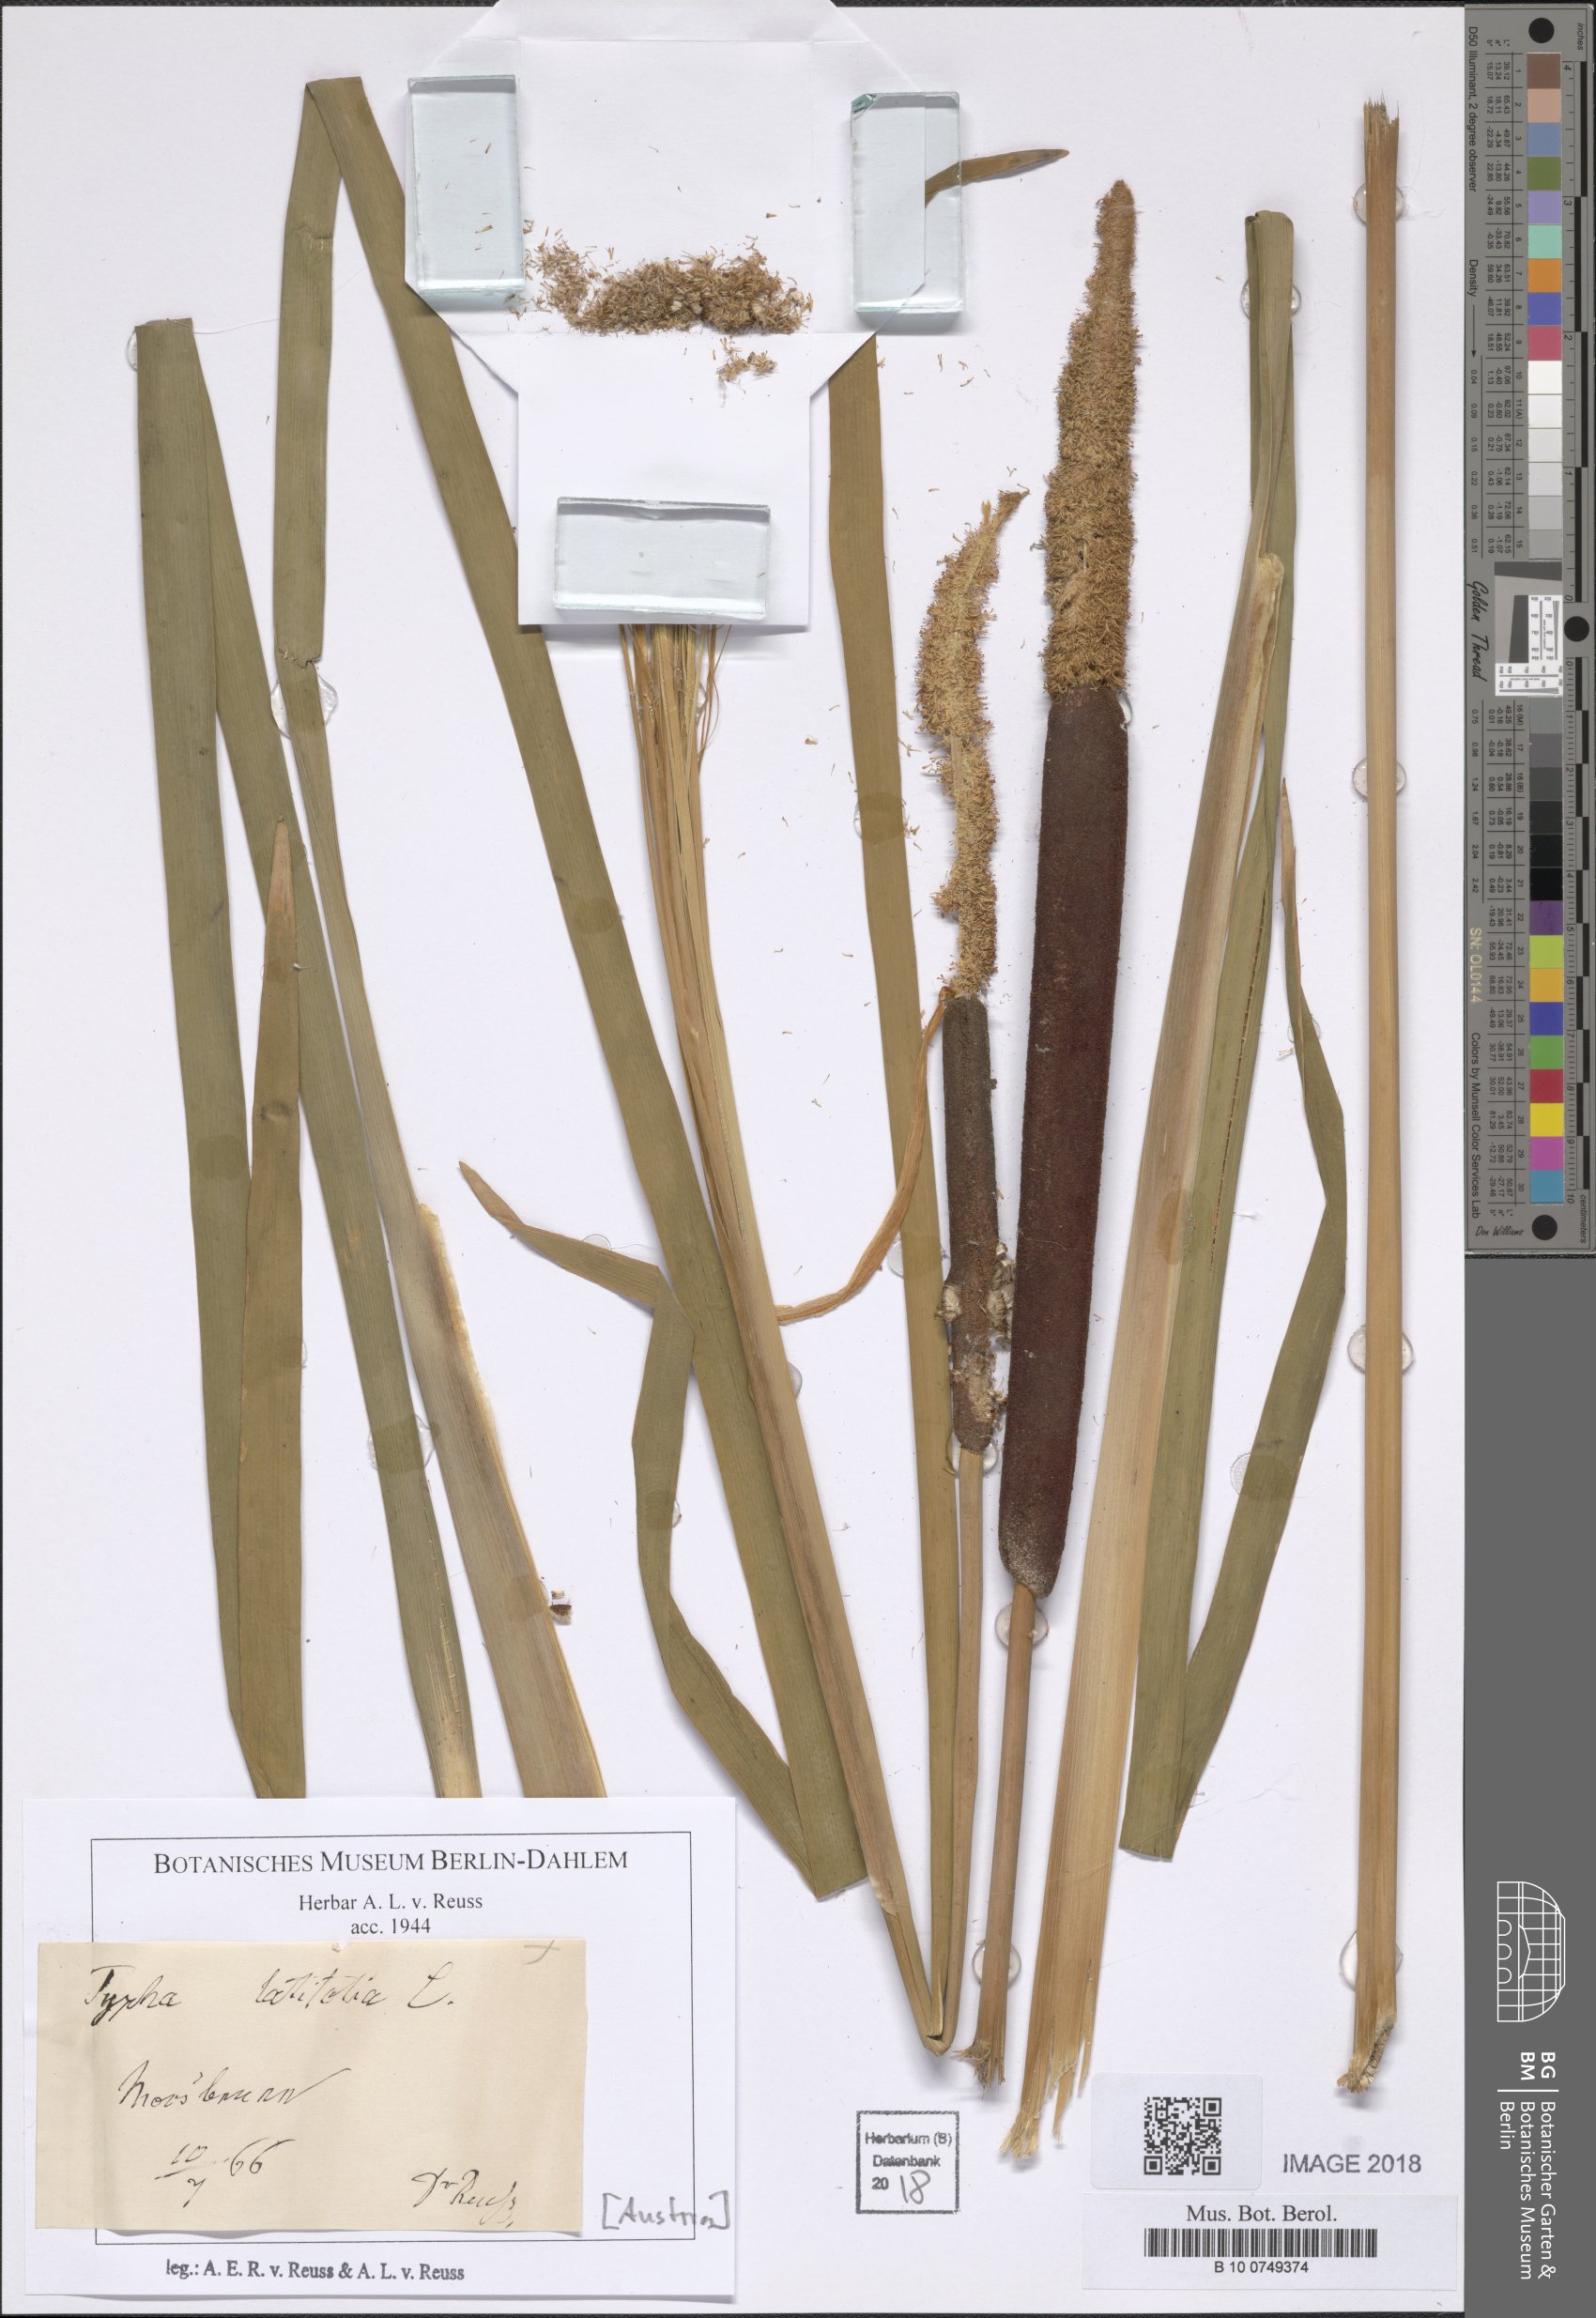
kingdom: Plantae
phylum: Tracheophyta
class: Liliopsida
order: Poales
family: Typhaceae
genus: Typha
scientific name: Typha latifolia
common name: Broadleaf cattail
